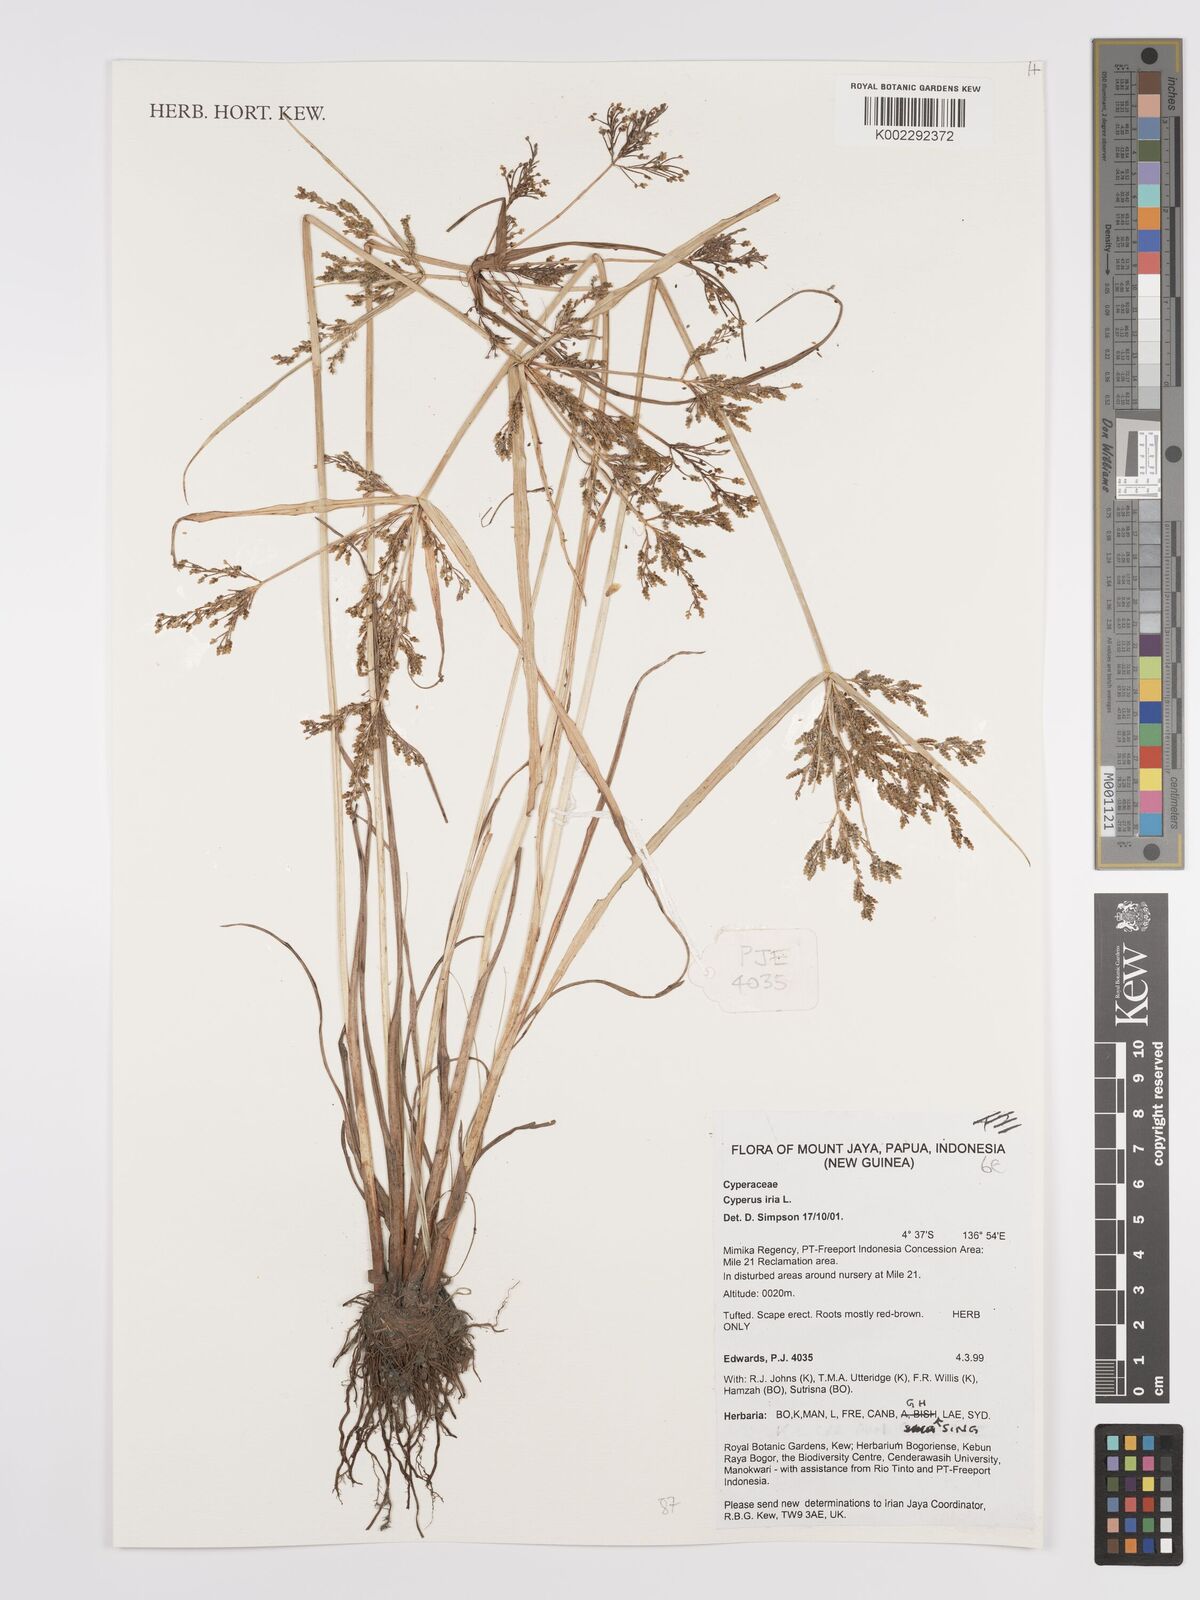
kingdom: Plantae
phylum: Tracheophyta
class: Liliopsida
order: Poales
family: Cyperaceae
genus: Cyperus
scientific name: Cyperus iria
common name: Ricefield flatsedge
